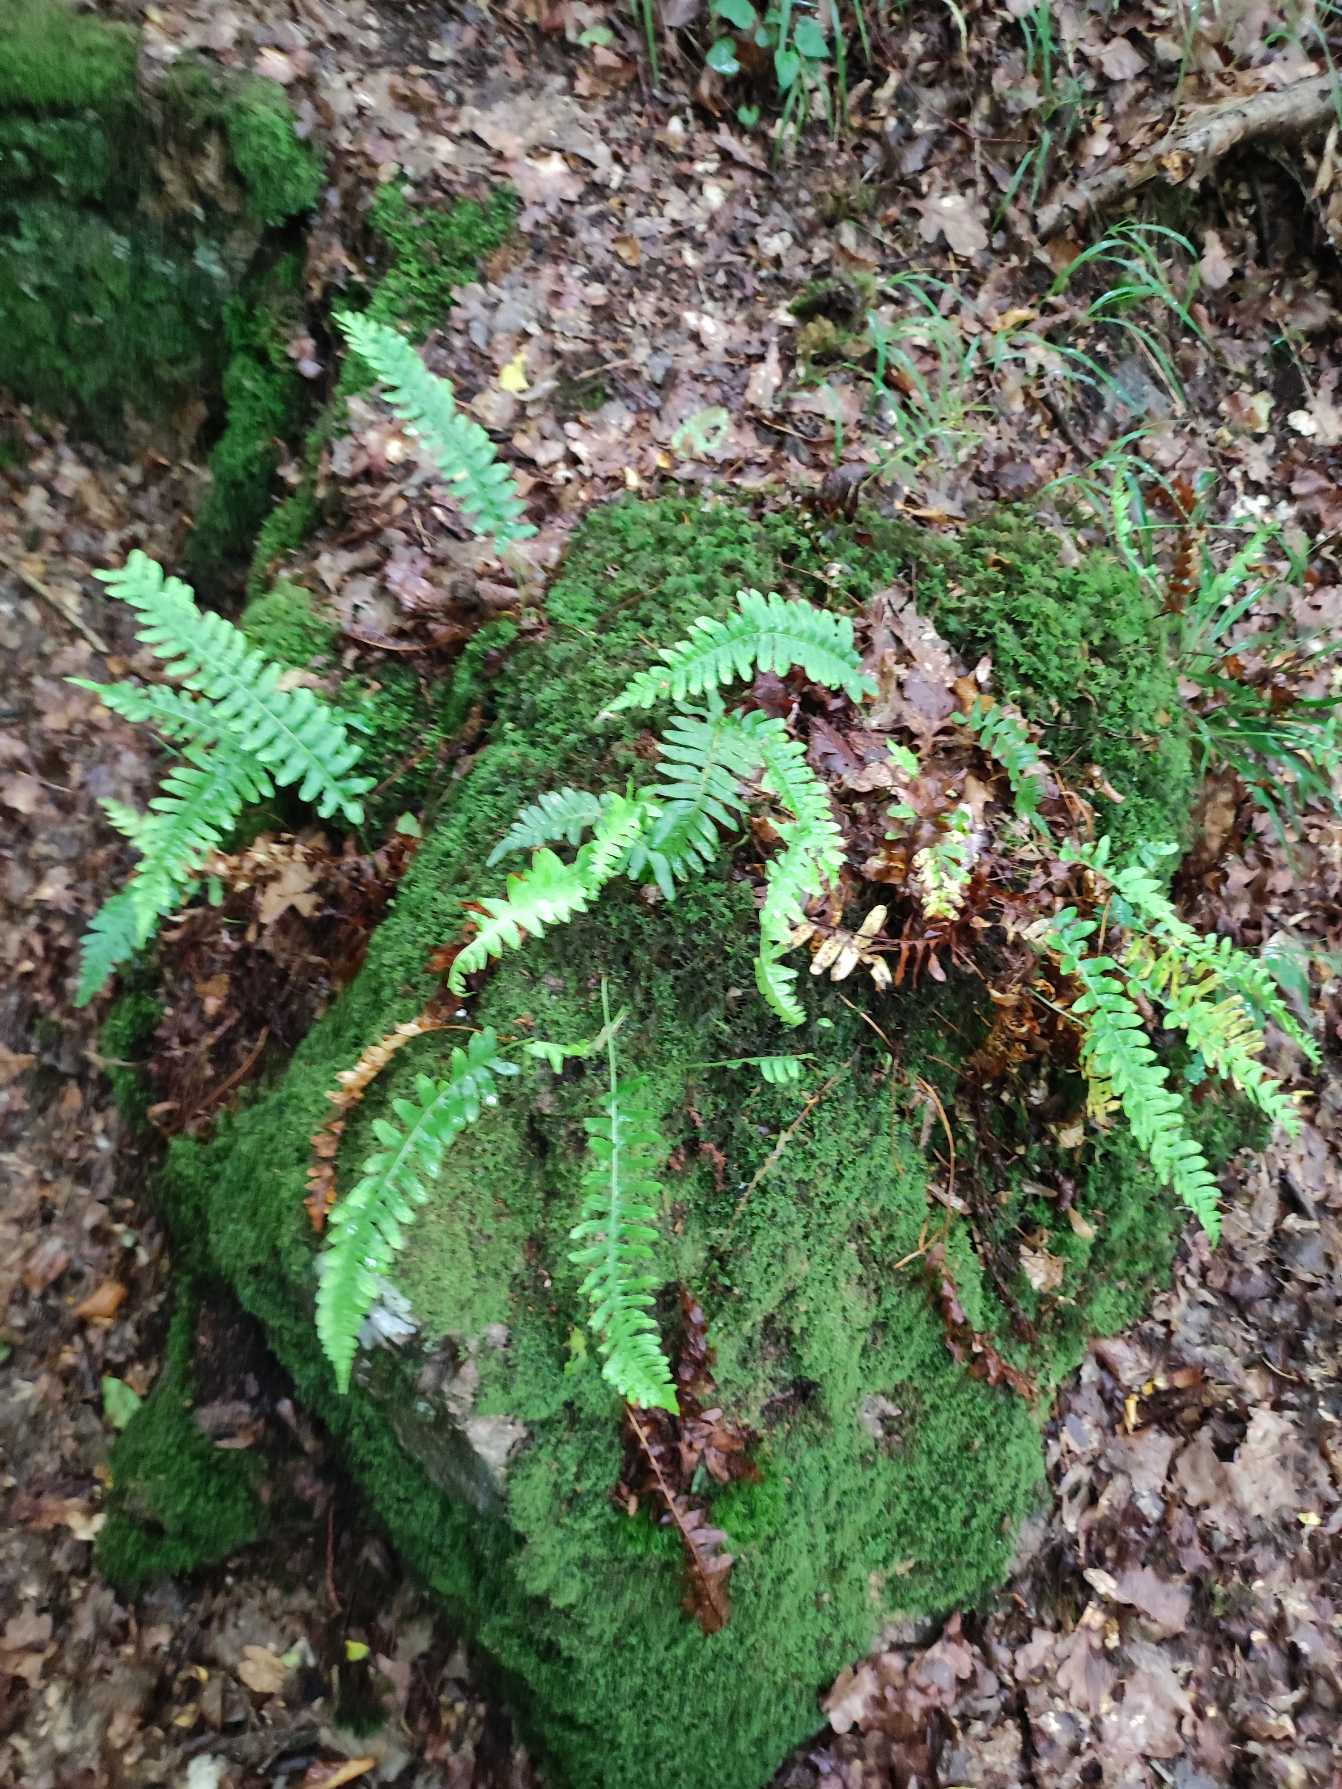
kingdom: Plantae
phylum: Tracheophyta
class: Polypodiopsida
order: Polypodiales
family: Polypodiaceae
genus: Polypodium
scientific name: Polypodium vulgare
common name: Almindelig engelsød
